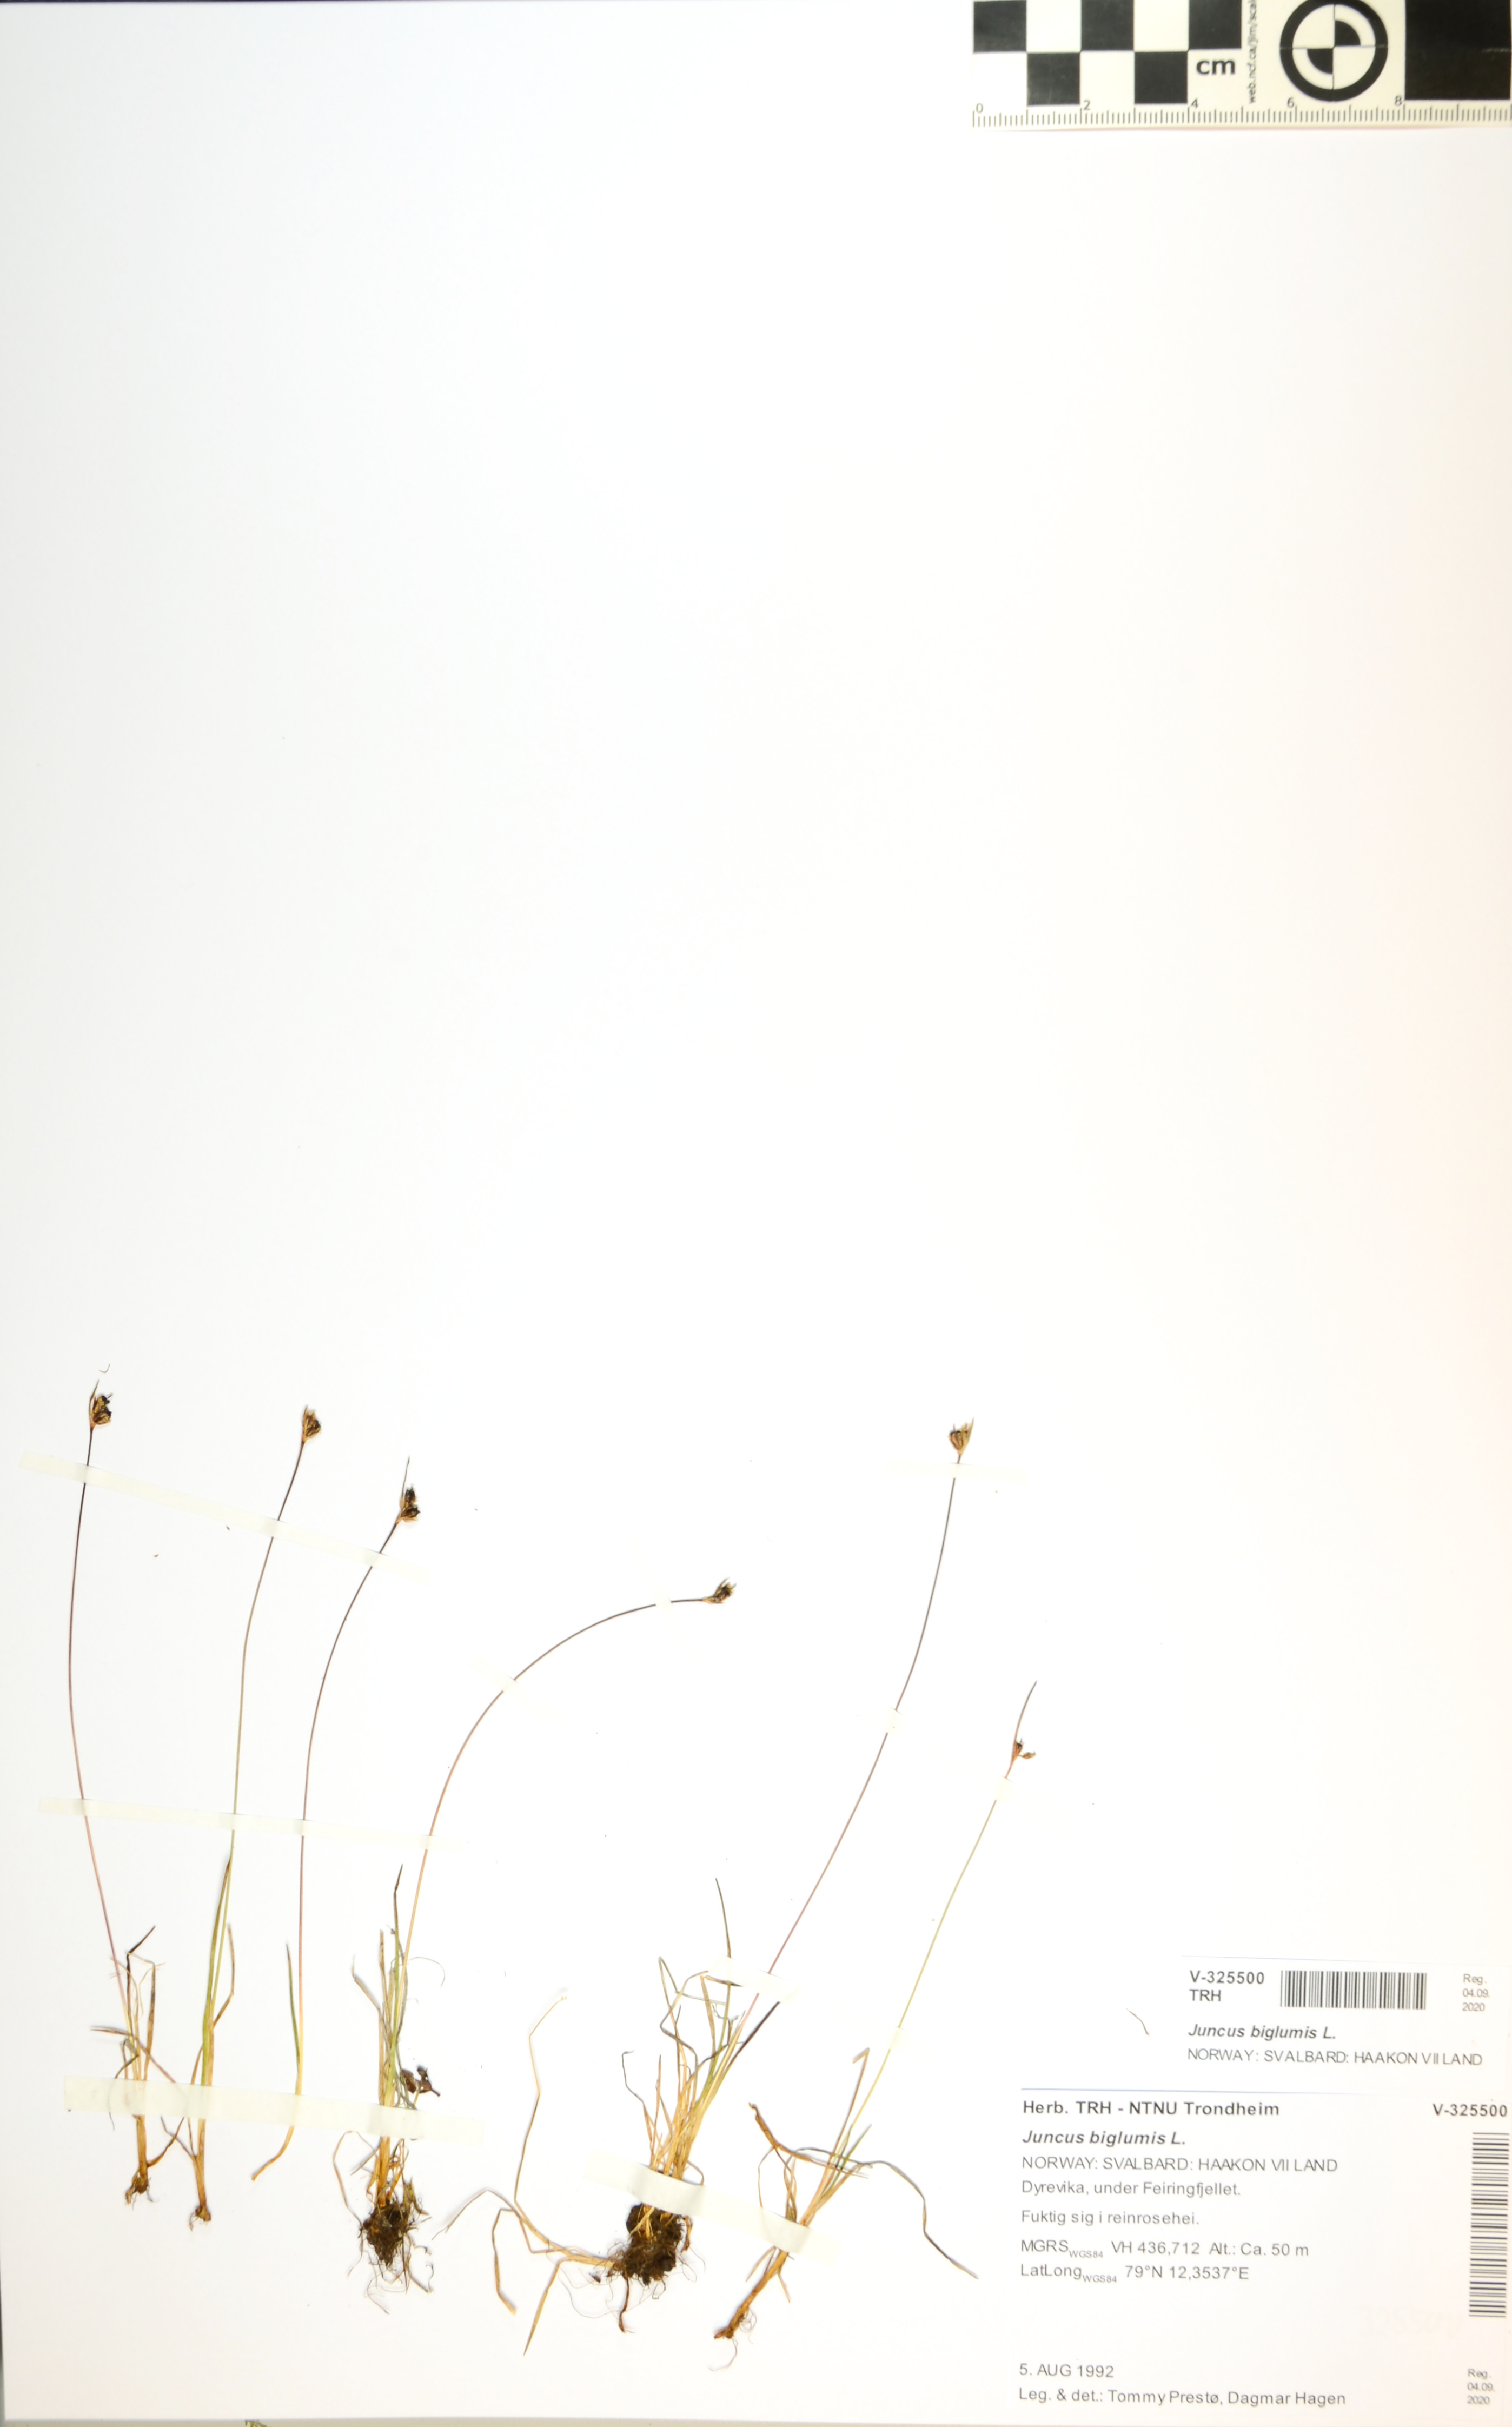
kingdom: Plantae
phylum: Tracheophyta
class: Liliopsida
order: Poales
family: Juncaceae
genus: Juncus
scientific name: Juncus biglumis
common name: Two-flowered rush
